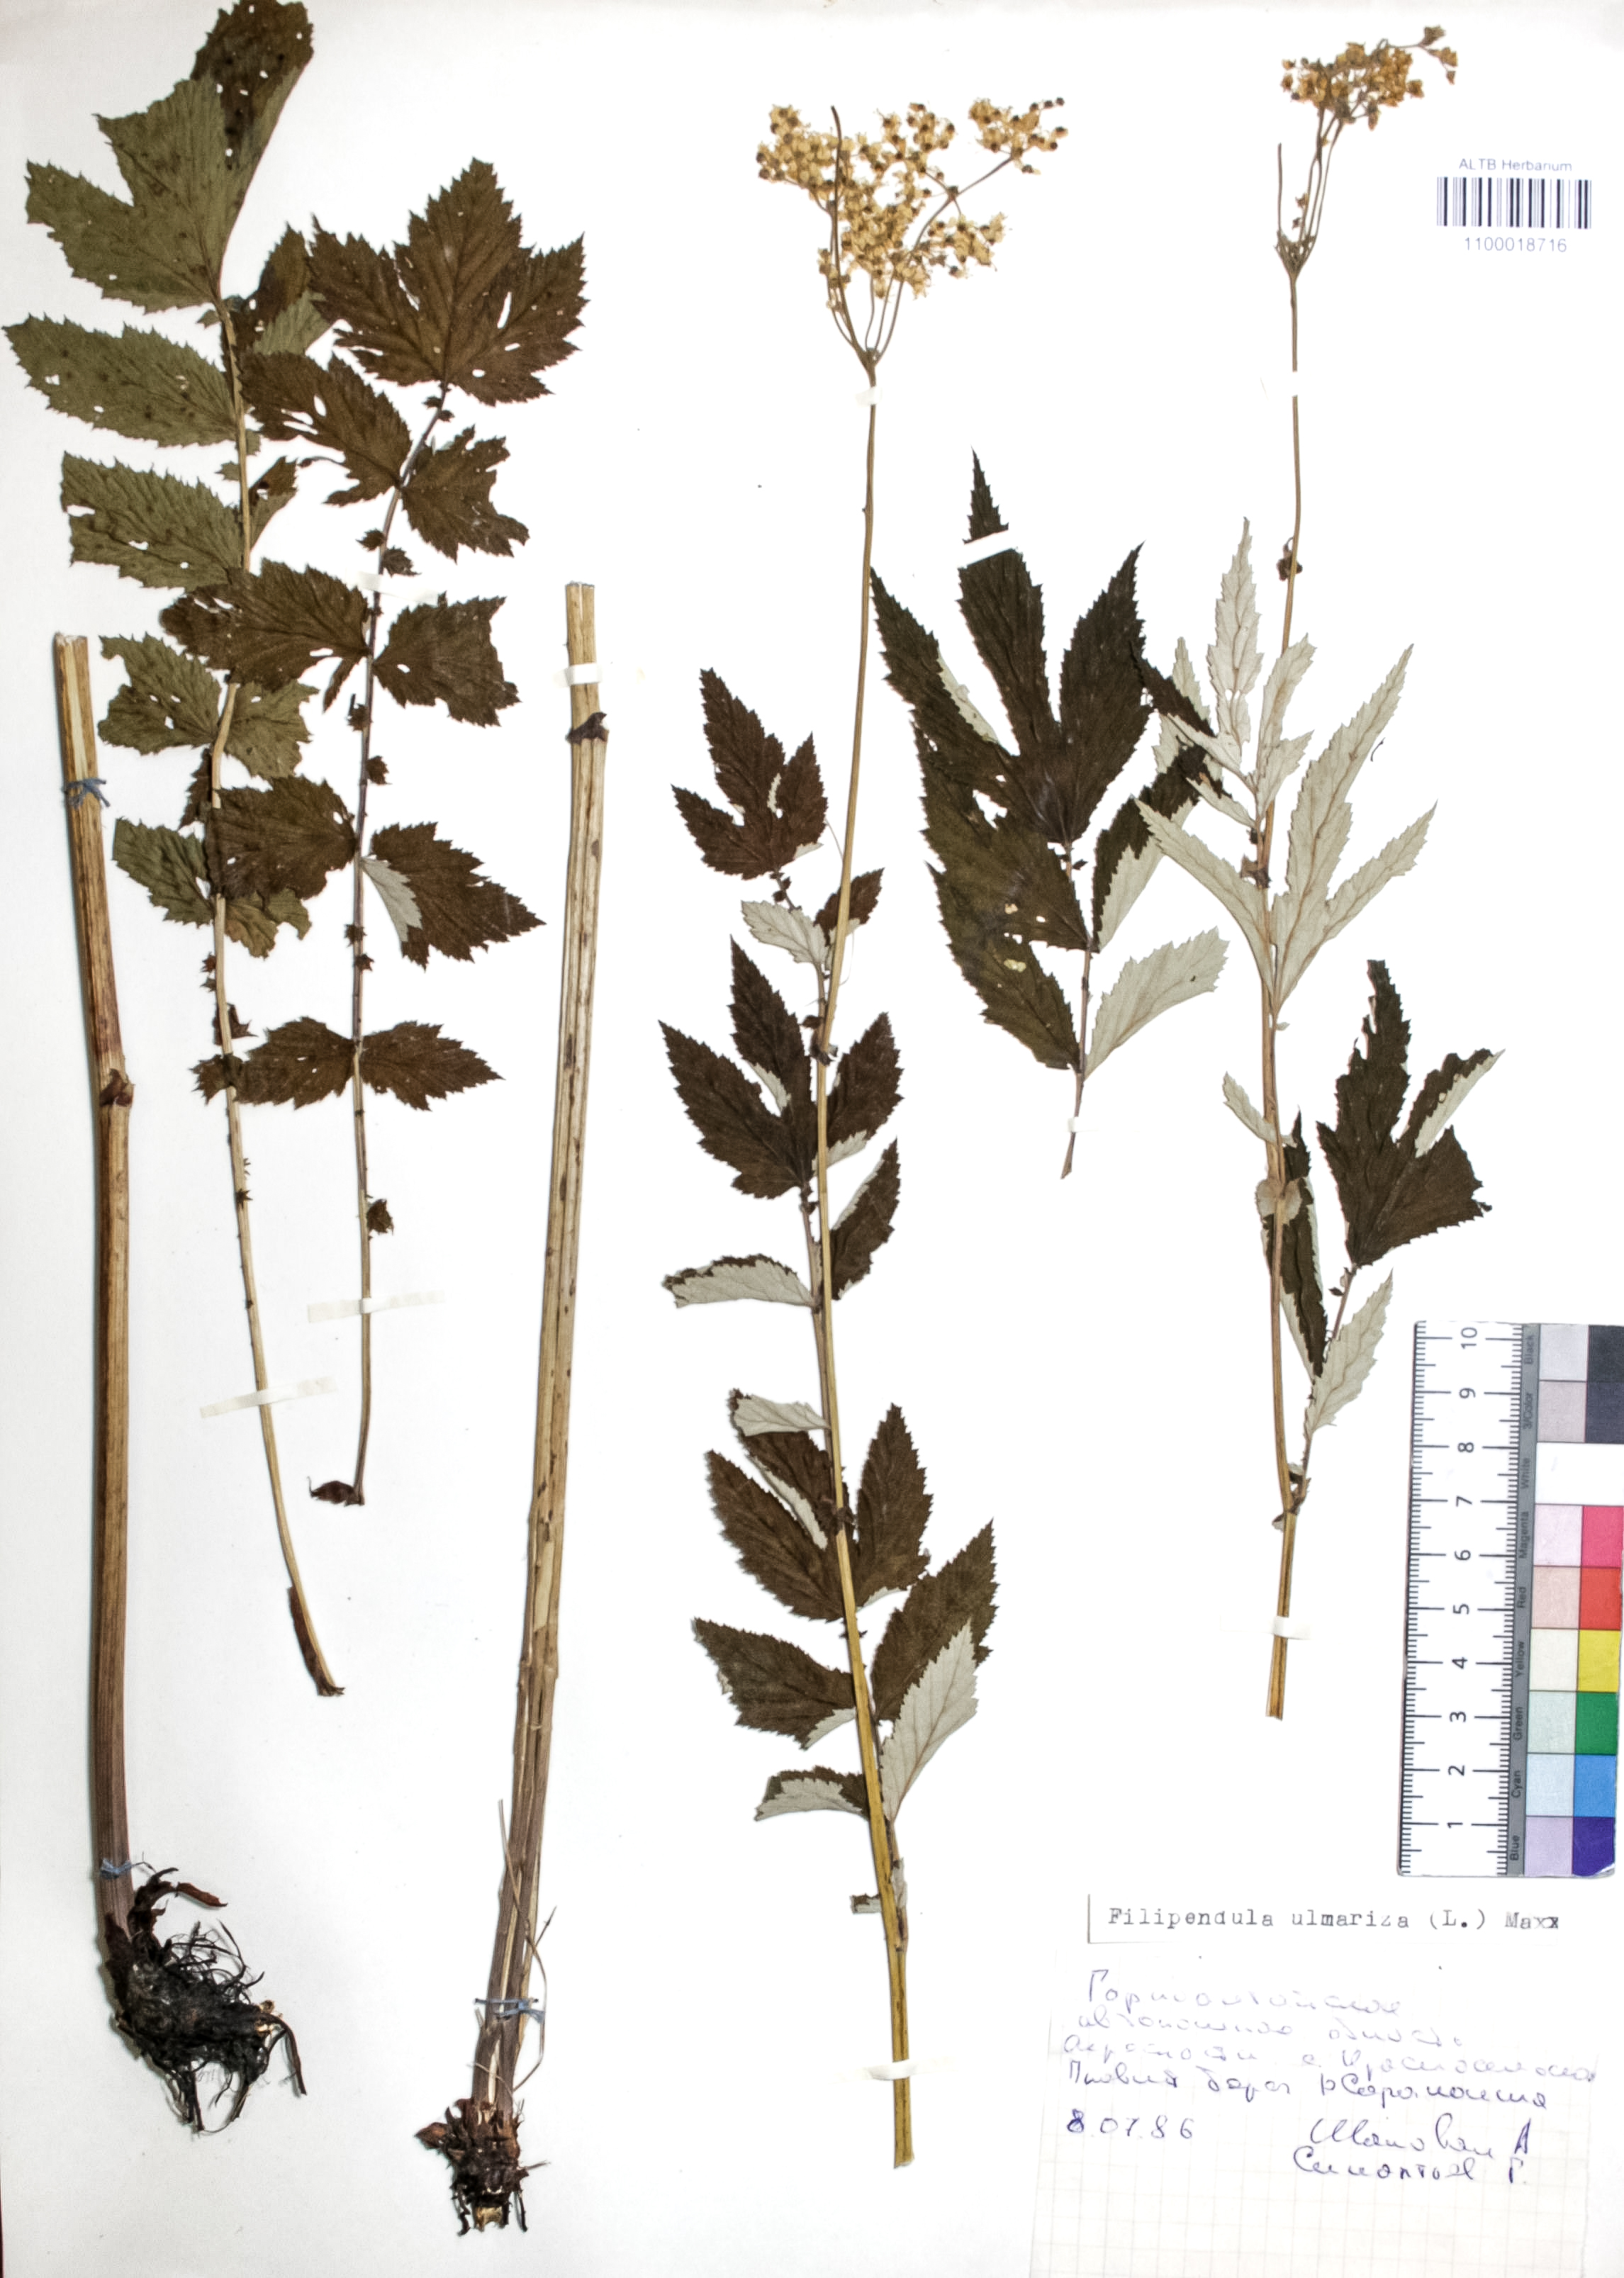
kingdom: Plantae
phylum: Tracheophyta
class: Magnoliopsida
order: Rosales
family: Rosaceae
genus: Filipendula
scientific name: Filipendula ulmaria
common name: Meadowsweet
